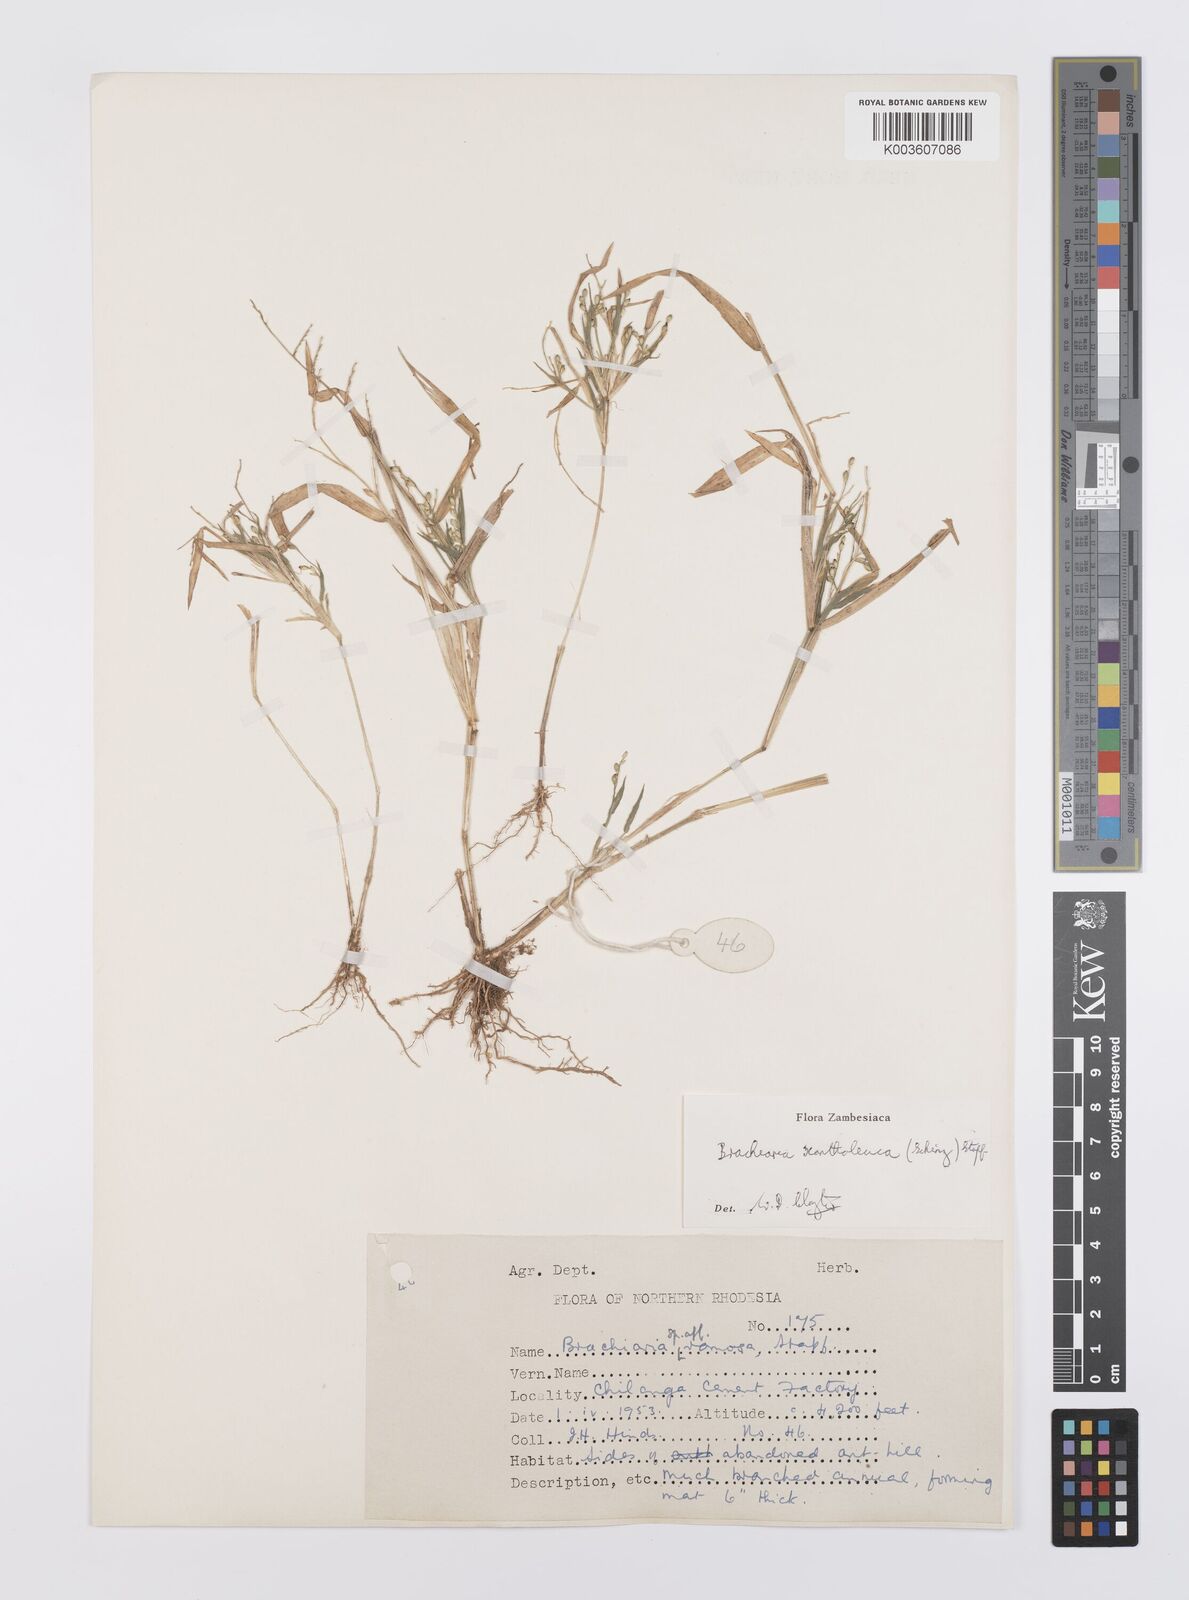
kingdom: Plantae
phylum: Tracheophyta
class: Liliopsida
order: Poales
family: Poaceae
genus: Urochloa
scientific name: Urochloa xantholeuca
